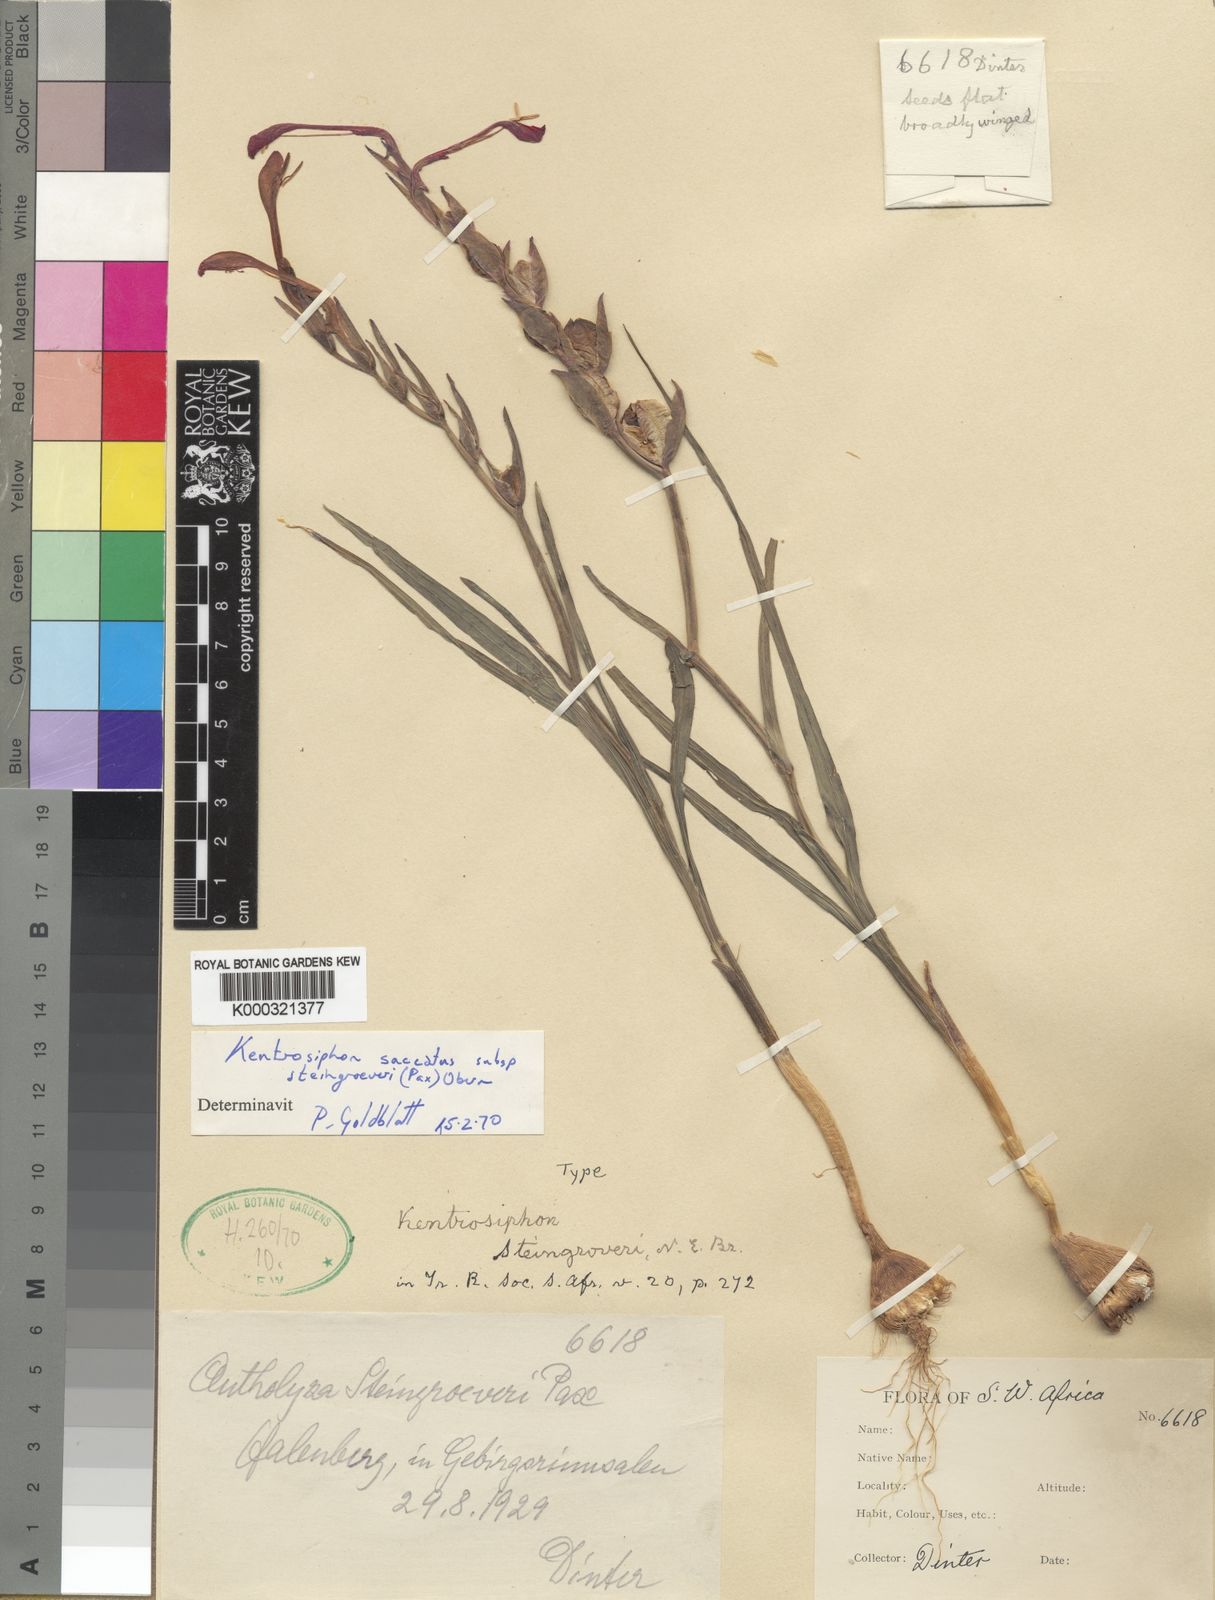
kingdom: Plantae
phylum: Tracheophyta
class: Liliopsida
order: Asparagales
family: Iridaceae
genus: Gladiolus
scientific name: Gladiolus saccatus
